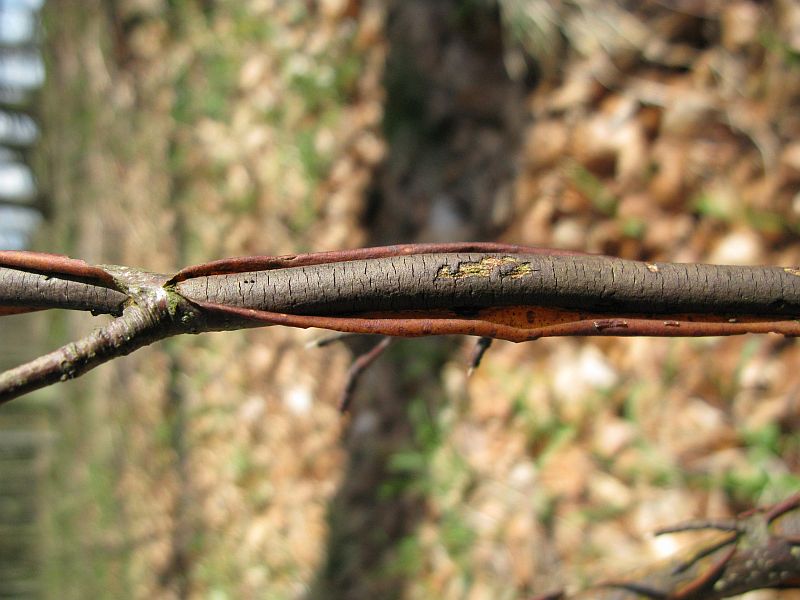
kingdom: Fungi
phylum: Ascomycota
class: Sordariomycetes
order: Xylariales
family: Diatrypaceae
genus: Diatrype
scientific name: Diatrype decorticata
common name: barksprænger-kulskorpe
